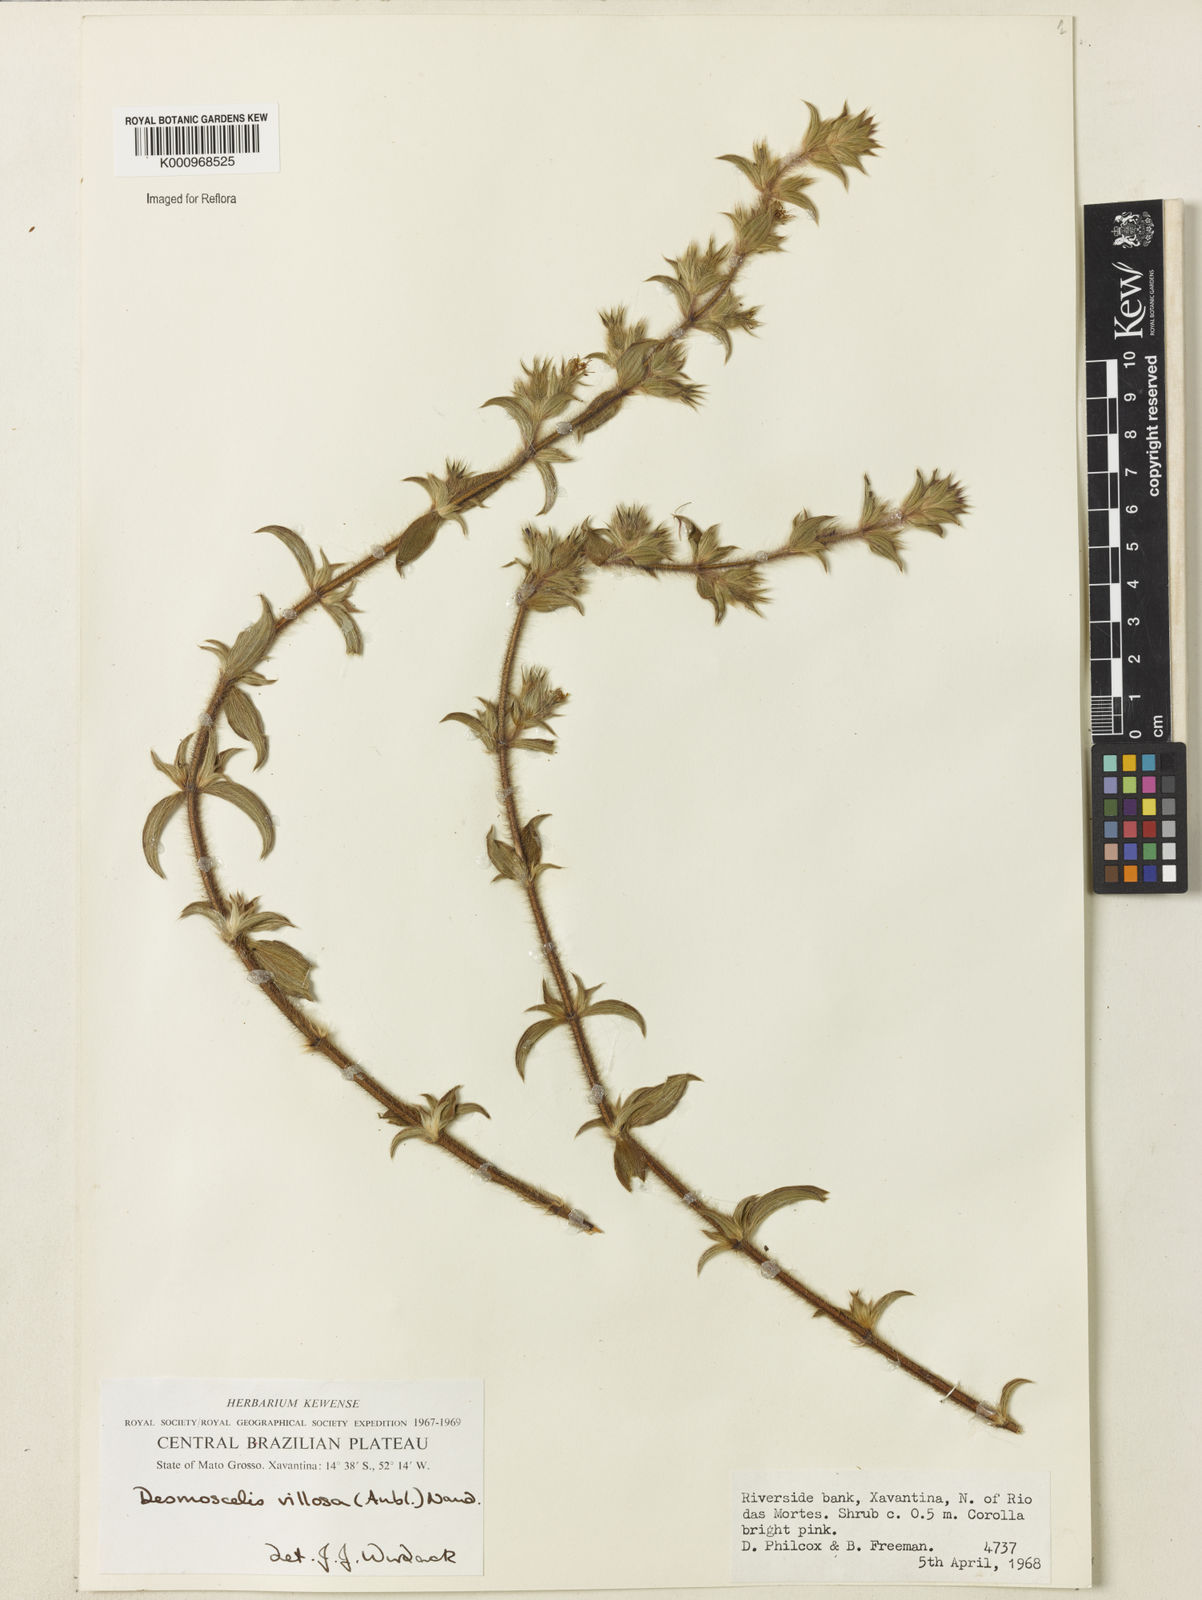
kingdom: Plantae
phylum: Tracheophyta
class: Magnoliopsida
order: Myrtales
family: Melastomataceae
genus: Desmoscelis
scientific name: Desmoscelis villosa
